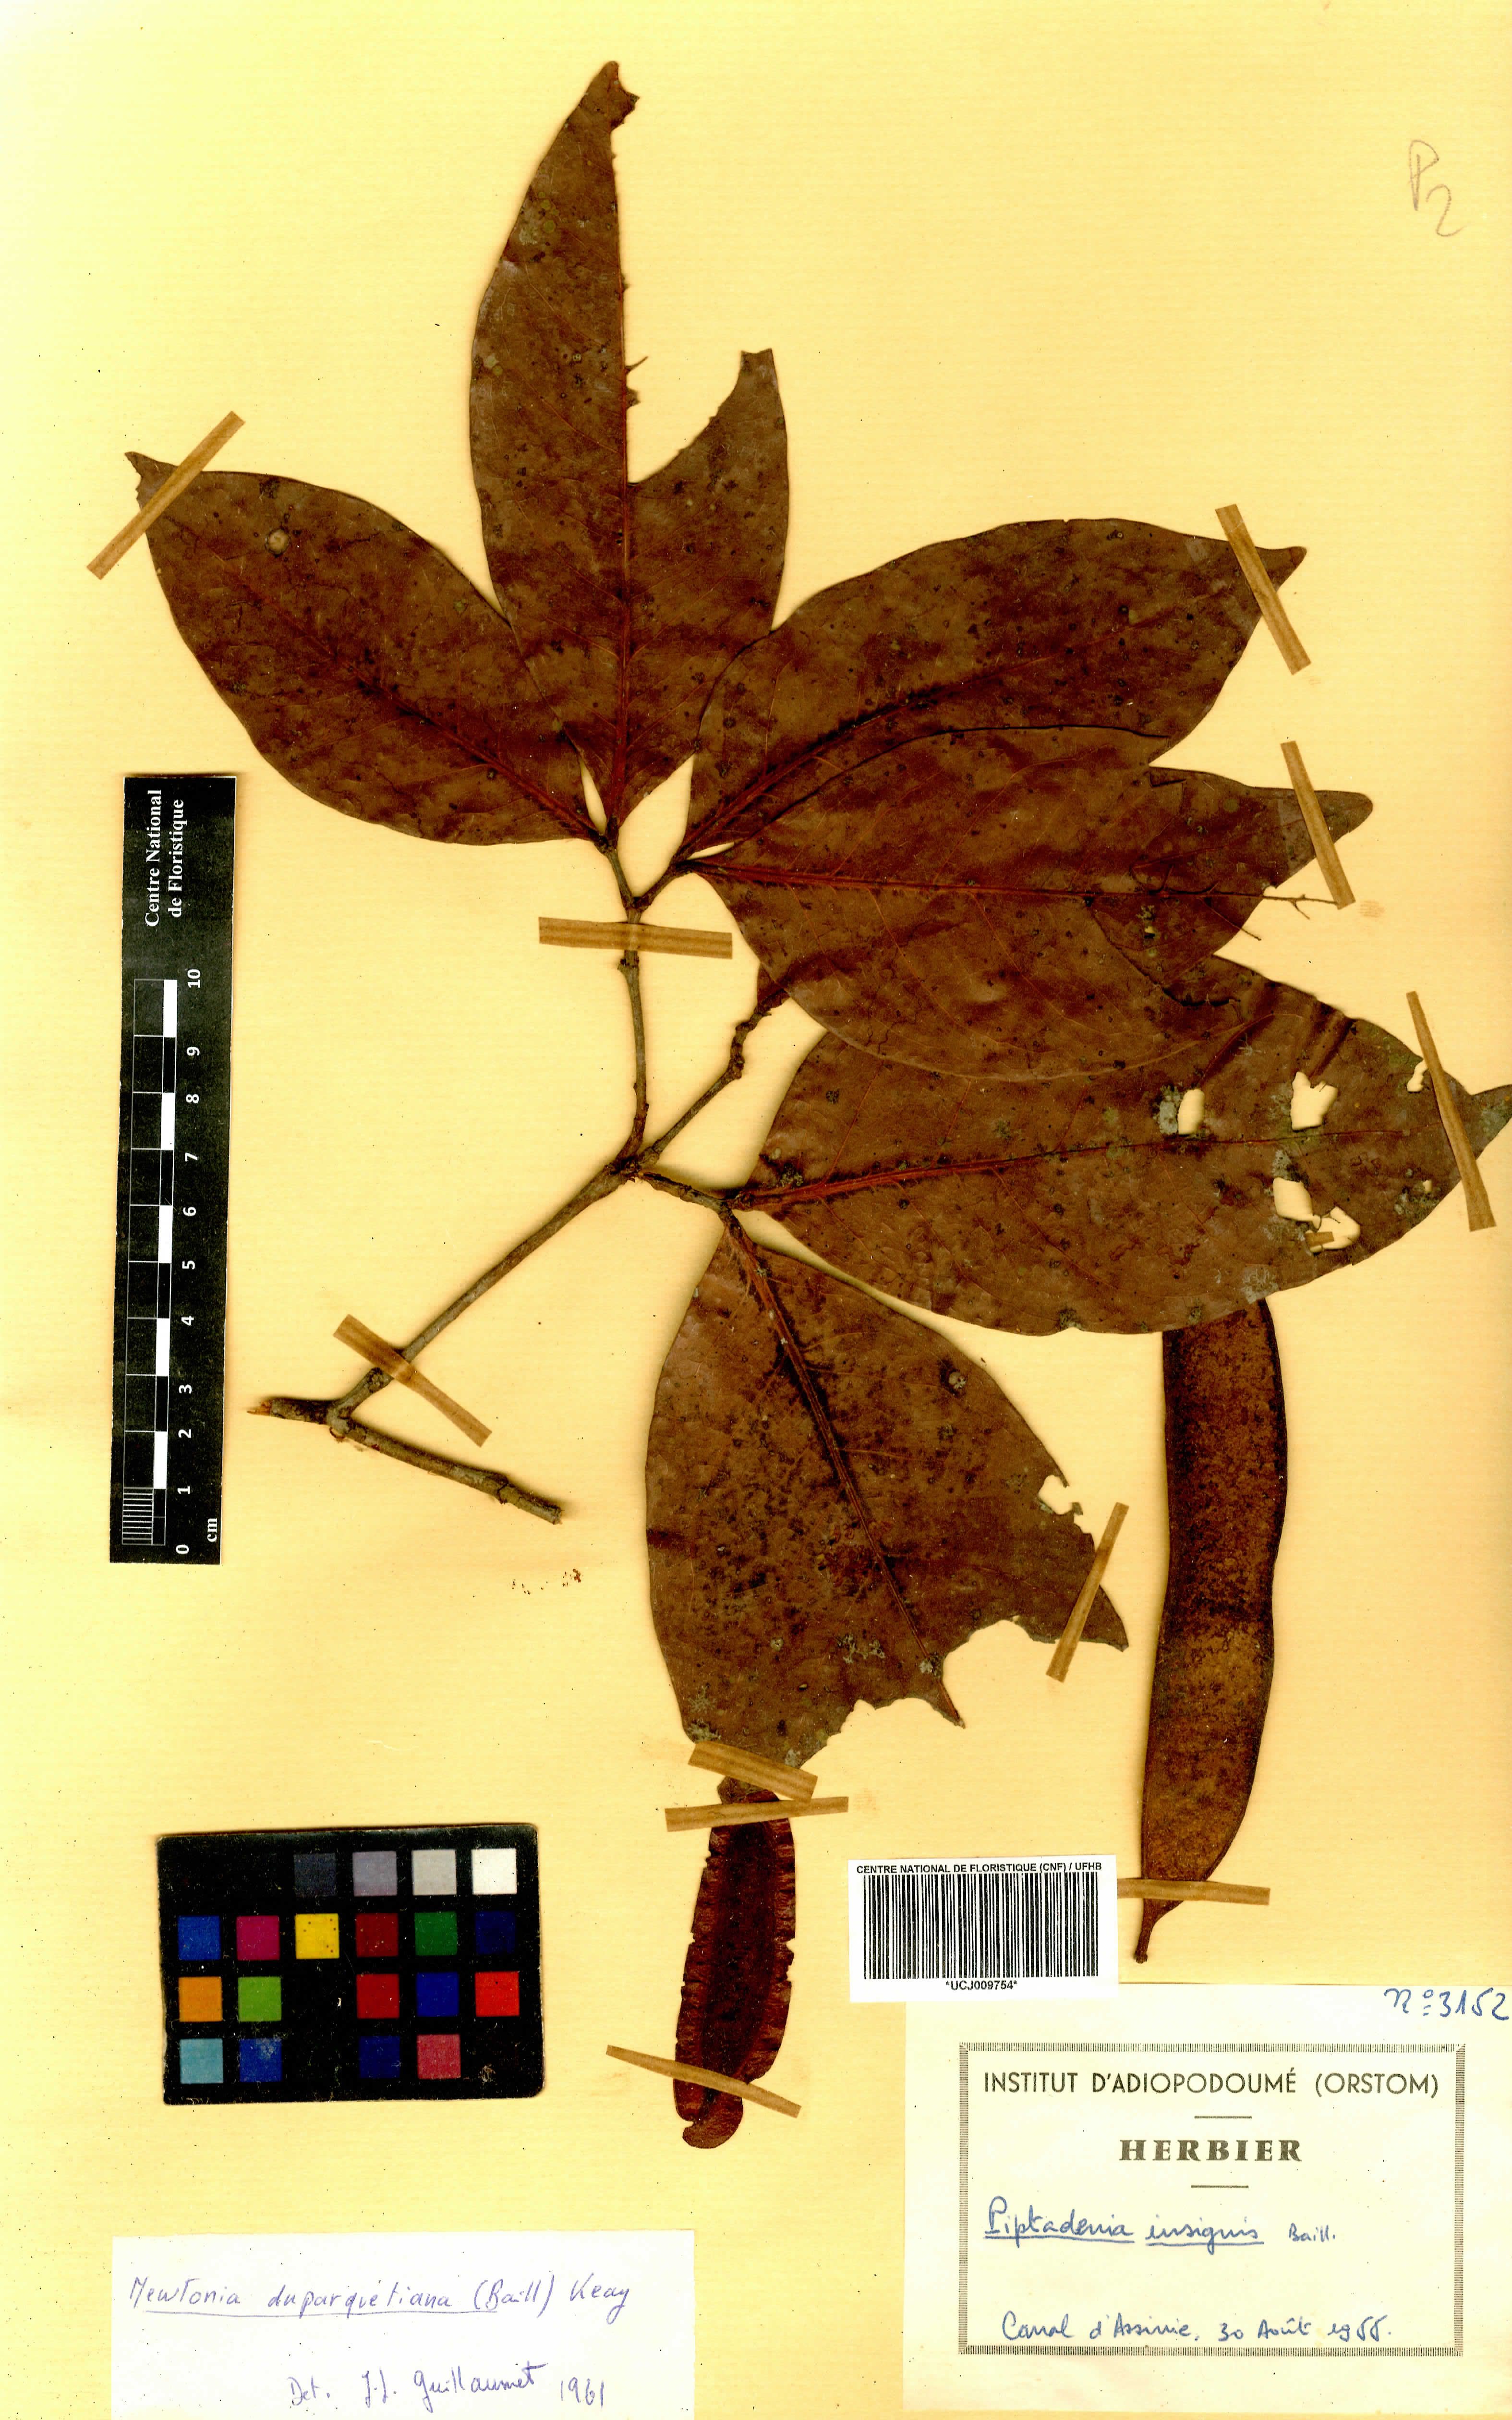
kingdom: Plantae
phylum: Tracheophyta
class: Magnoliopsida
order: Fabales
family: Fabaceae
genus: Newtonia
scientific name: Newtonia duparquetiana
